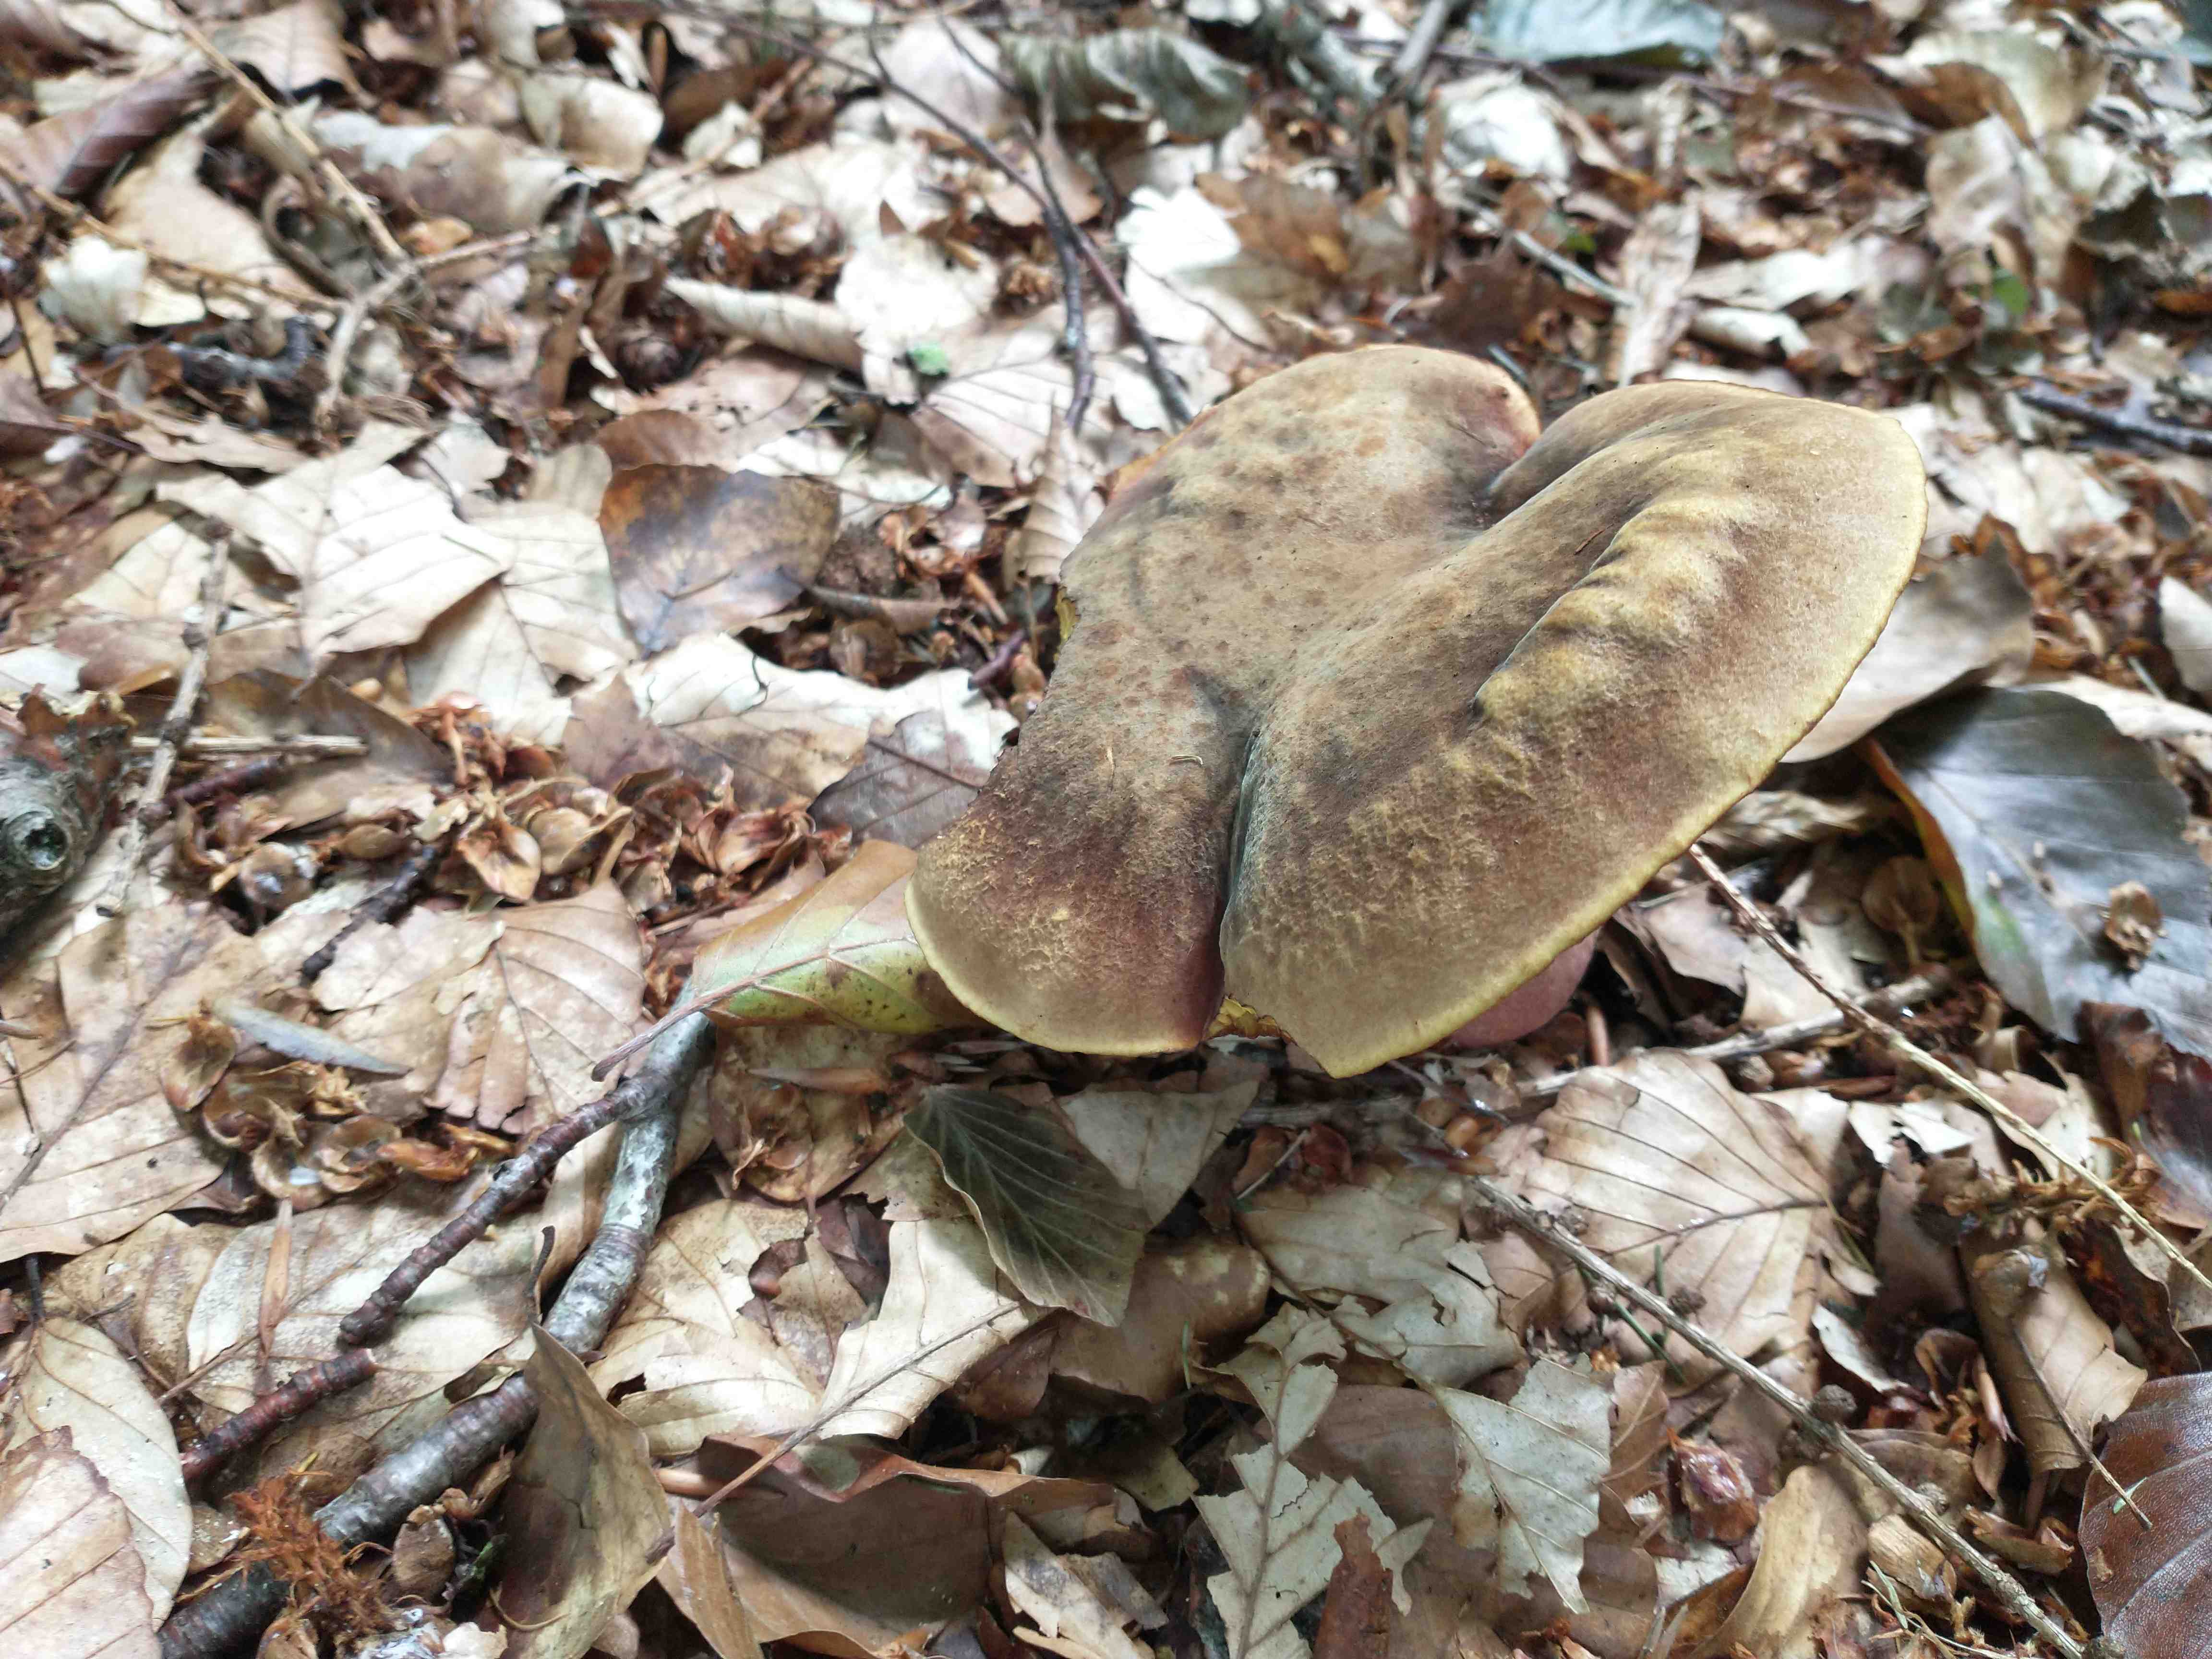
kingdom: Fungi
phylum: Basidiomycota
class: Agaricomycetes
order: Boletales
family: Boletaceae
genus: Neoboletus
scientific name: Neoboletus erythropus
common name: punktstokket indigorørhat
